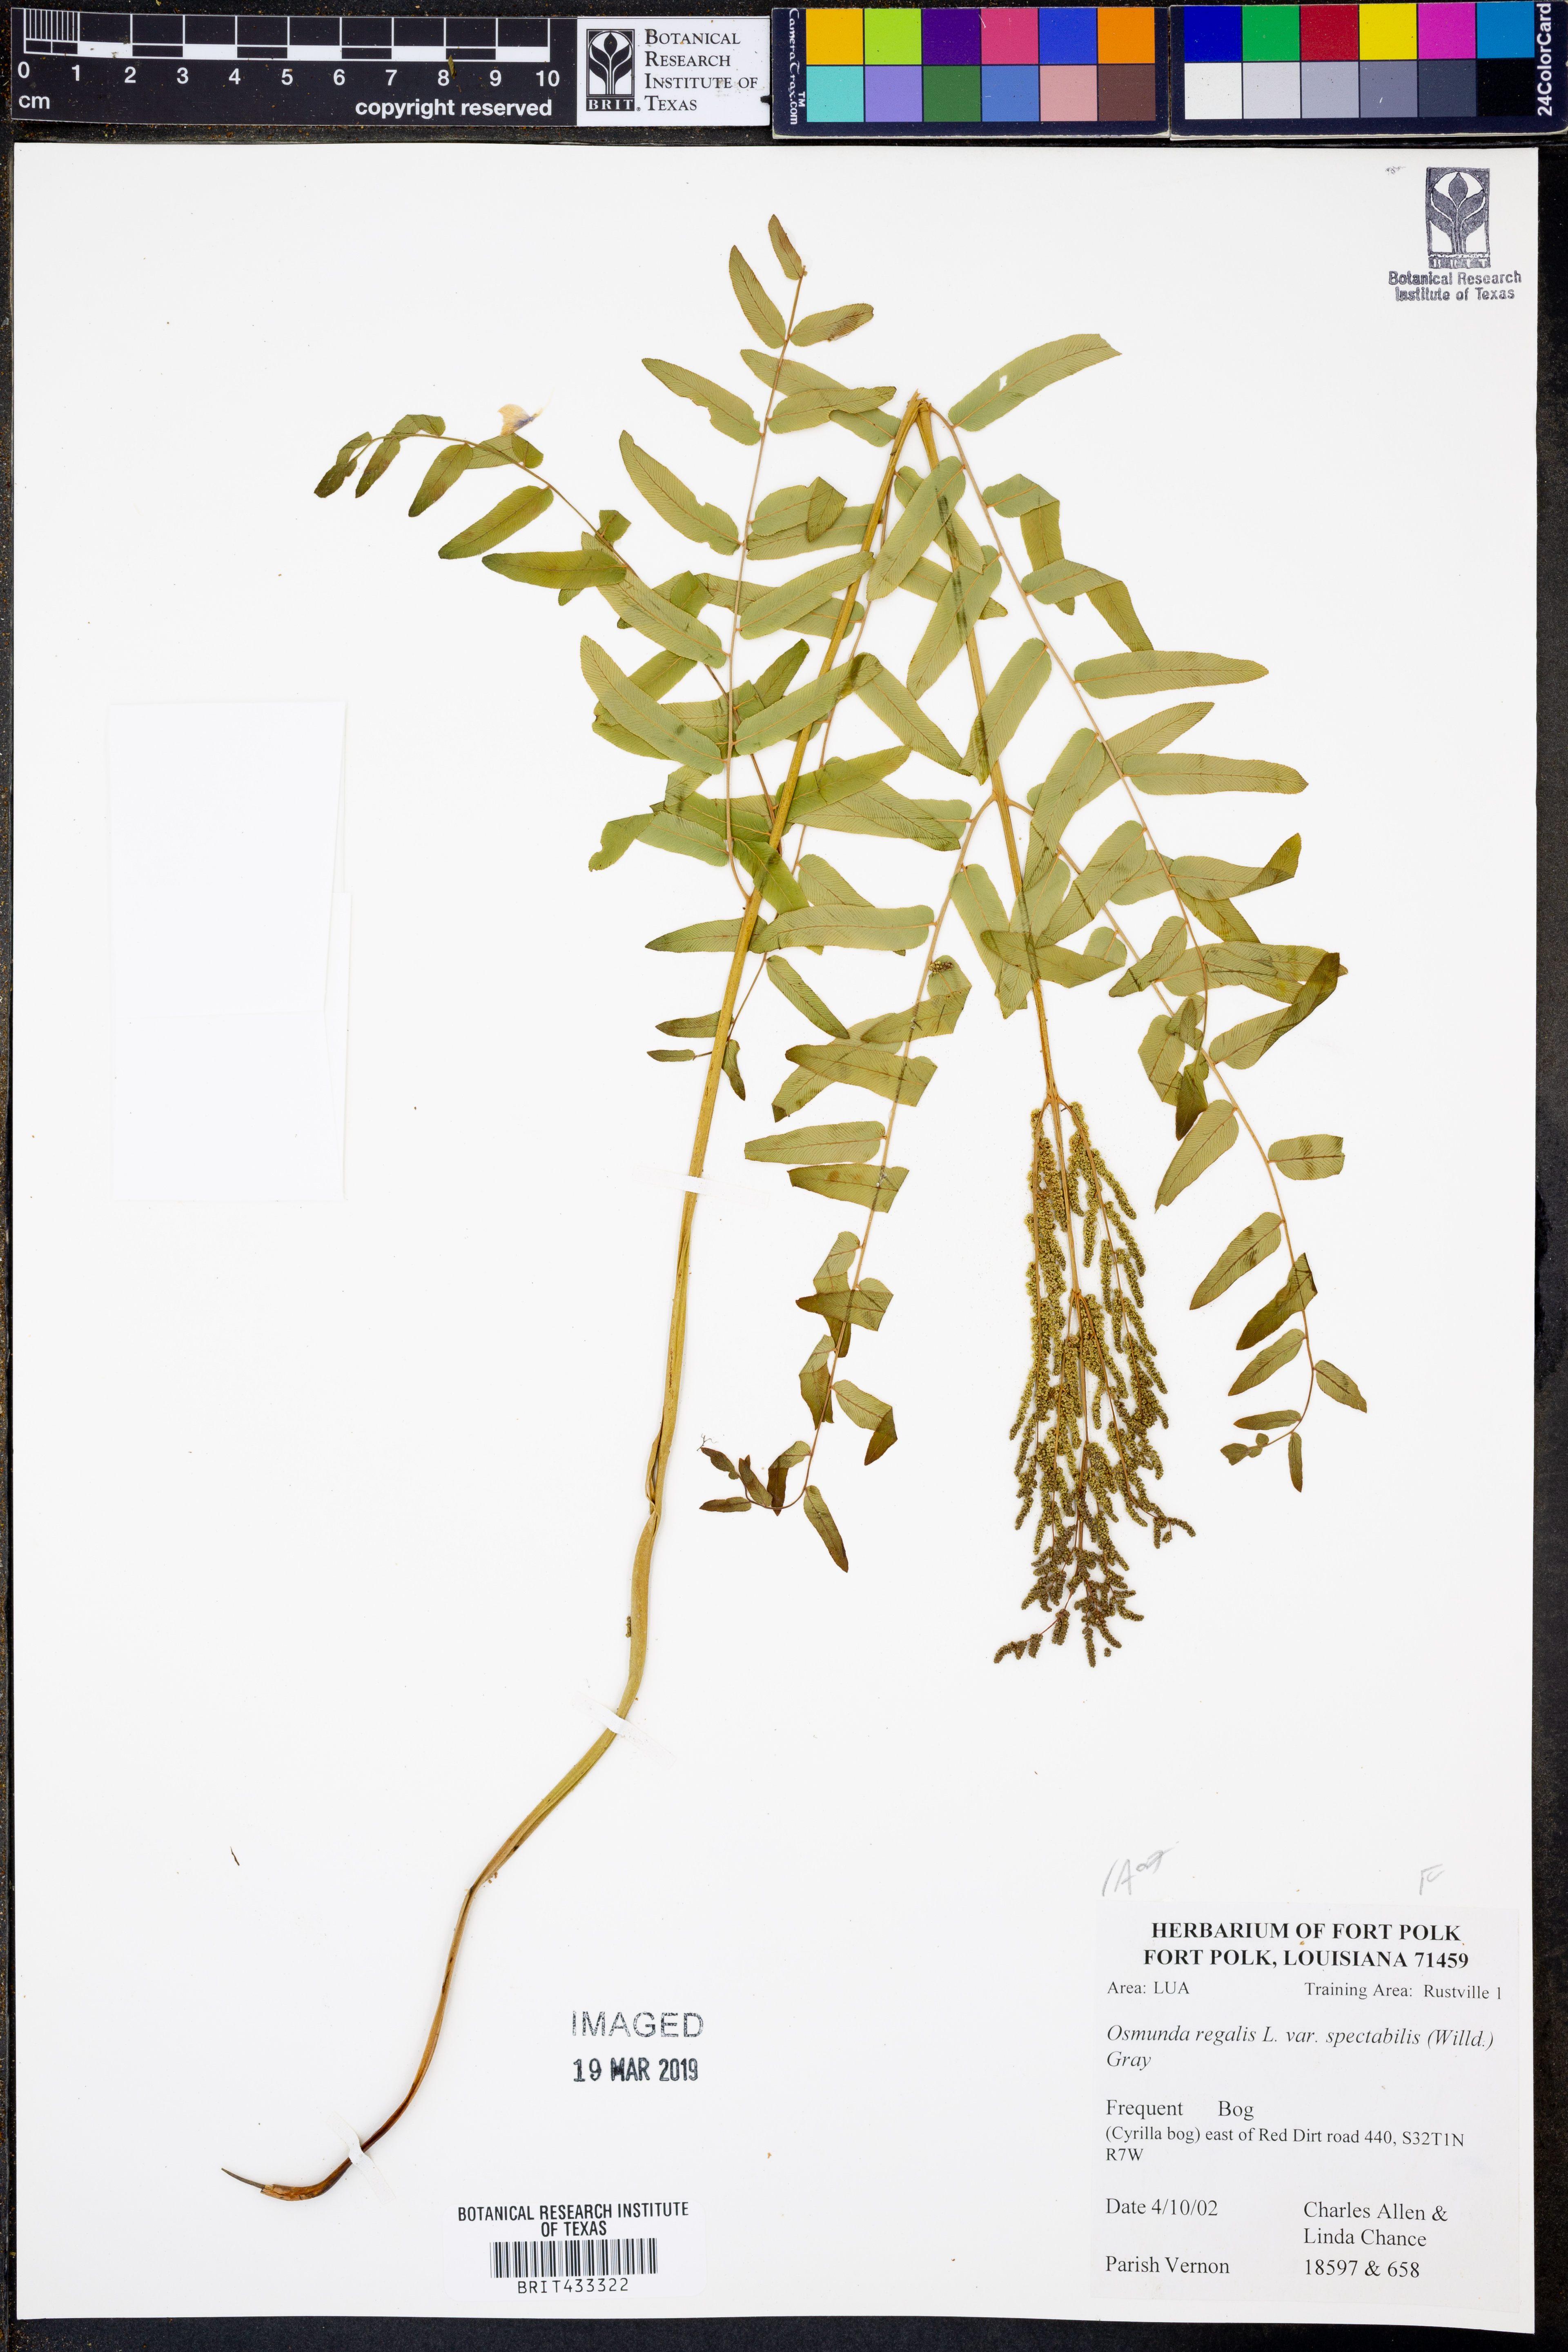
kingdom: Plantae
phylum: Tracheophyta
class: Polypodiopsida
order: Osmundales
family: Osmundaceae
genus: Osmunda
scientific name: Osmunda spectabilis
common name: American royal fern
